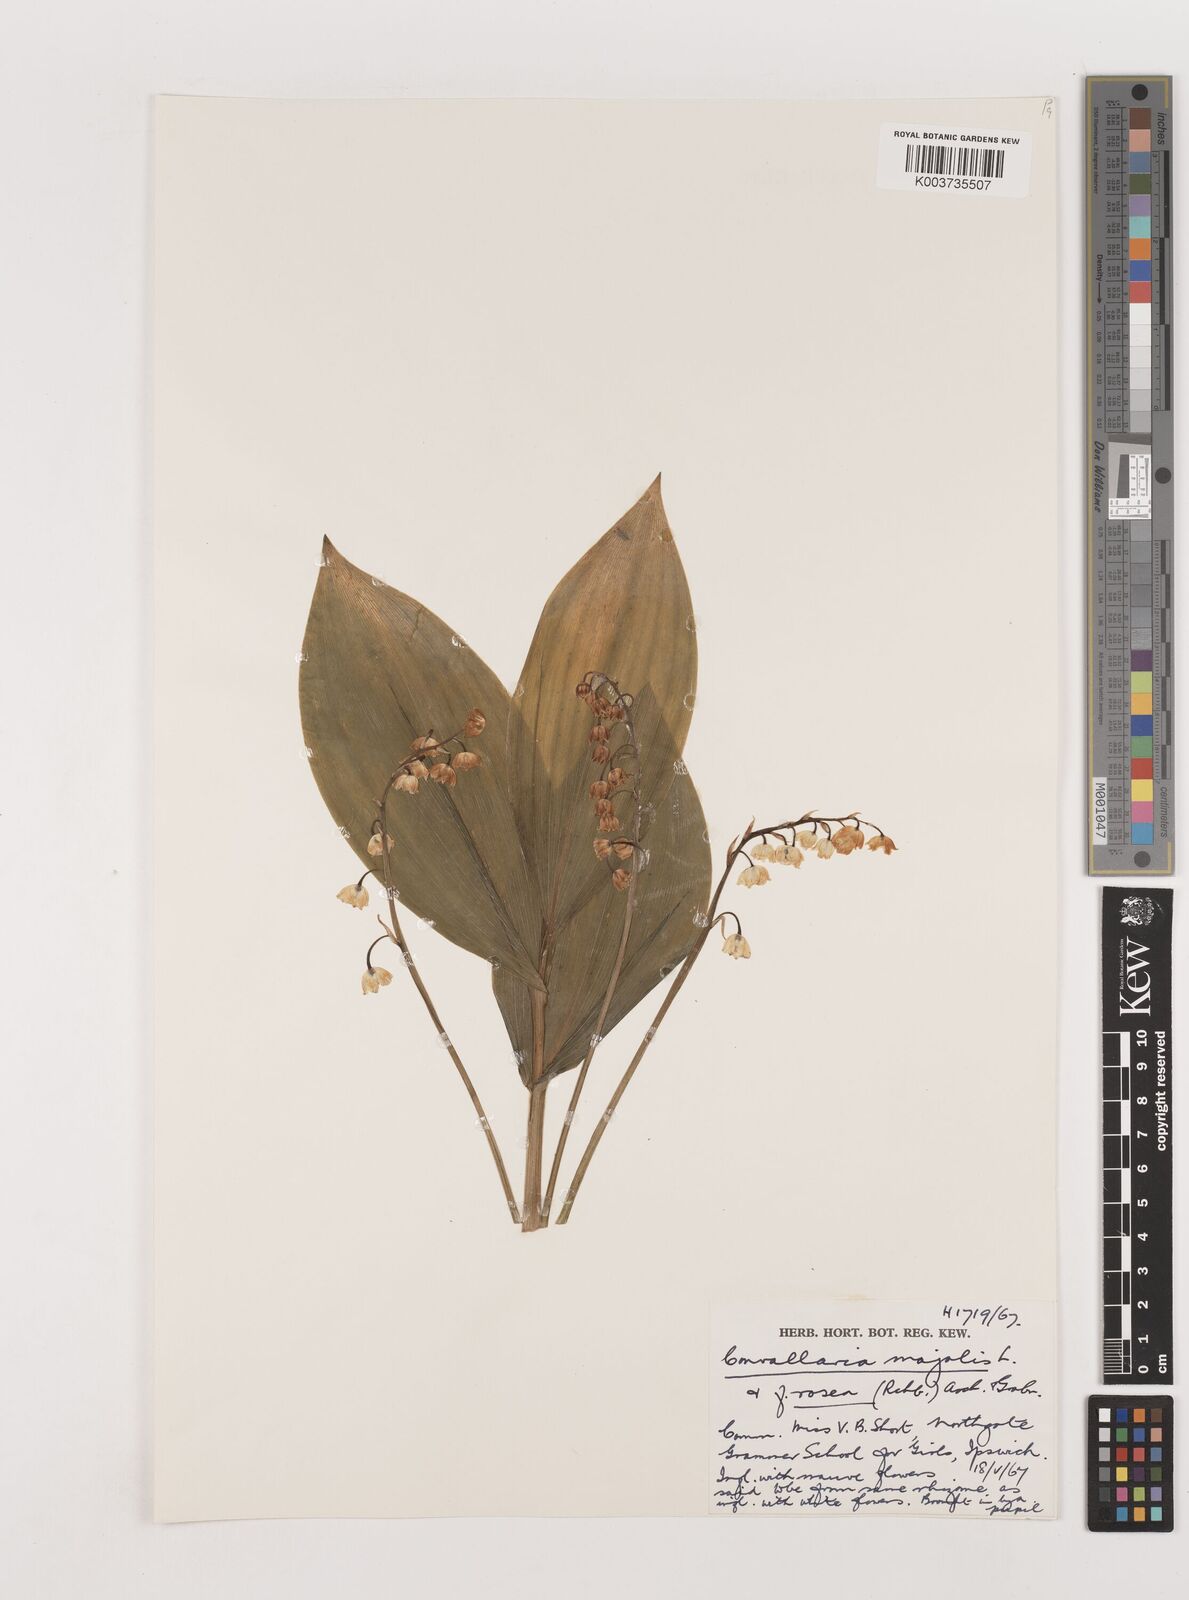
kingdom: Plantae
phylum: Tracheophyta
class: Liliopsida
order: Asparagales
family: Asparagaceae
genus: Convallaria
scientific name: Convallaria majalis
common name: Lily-of-the-valley
